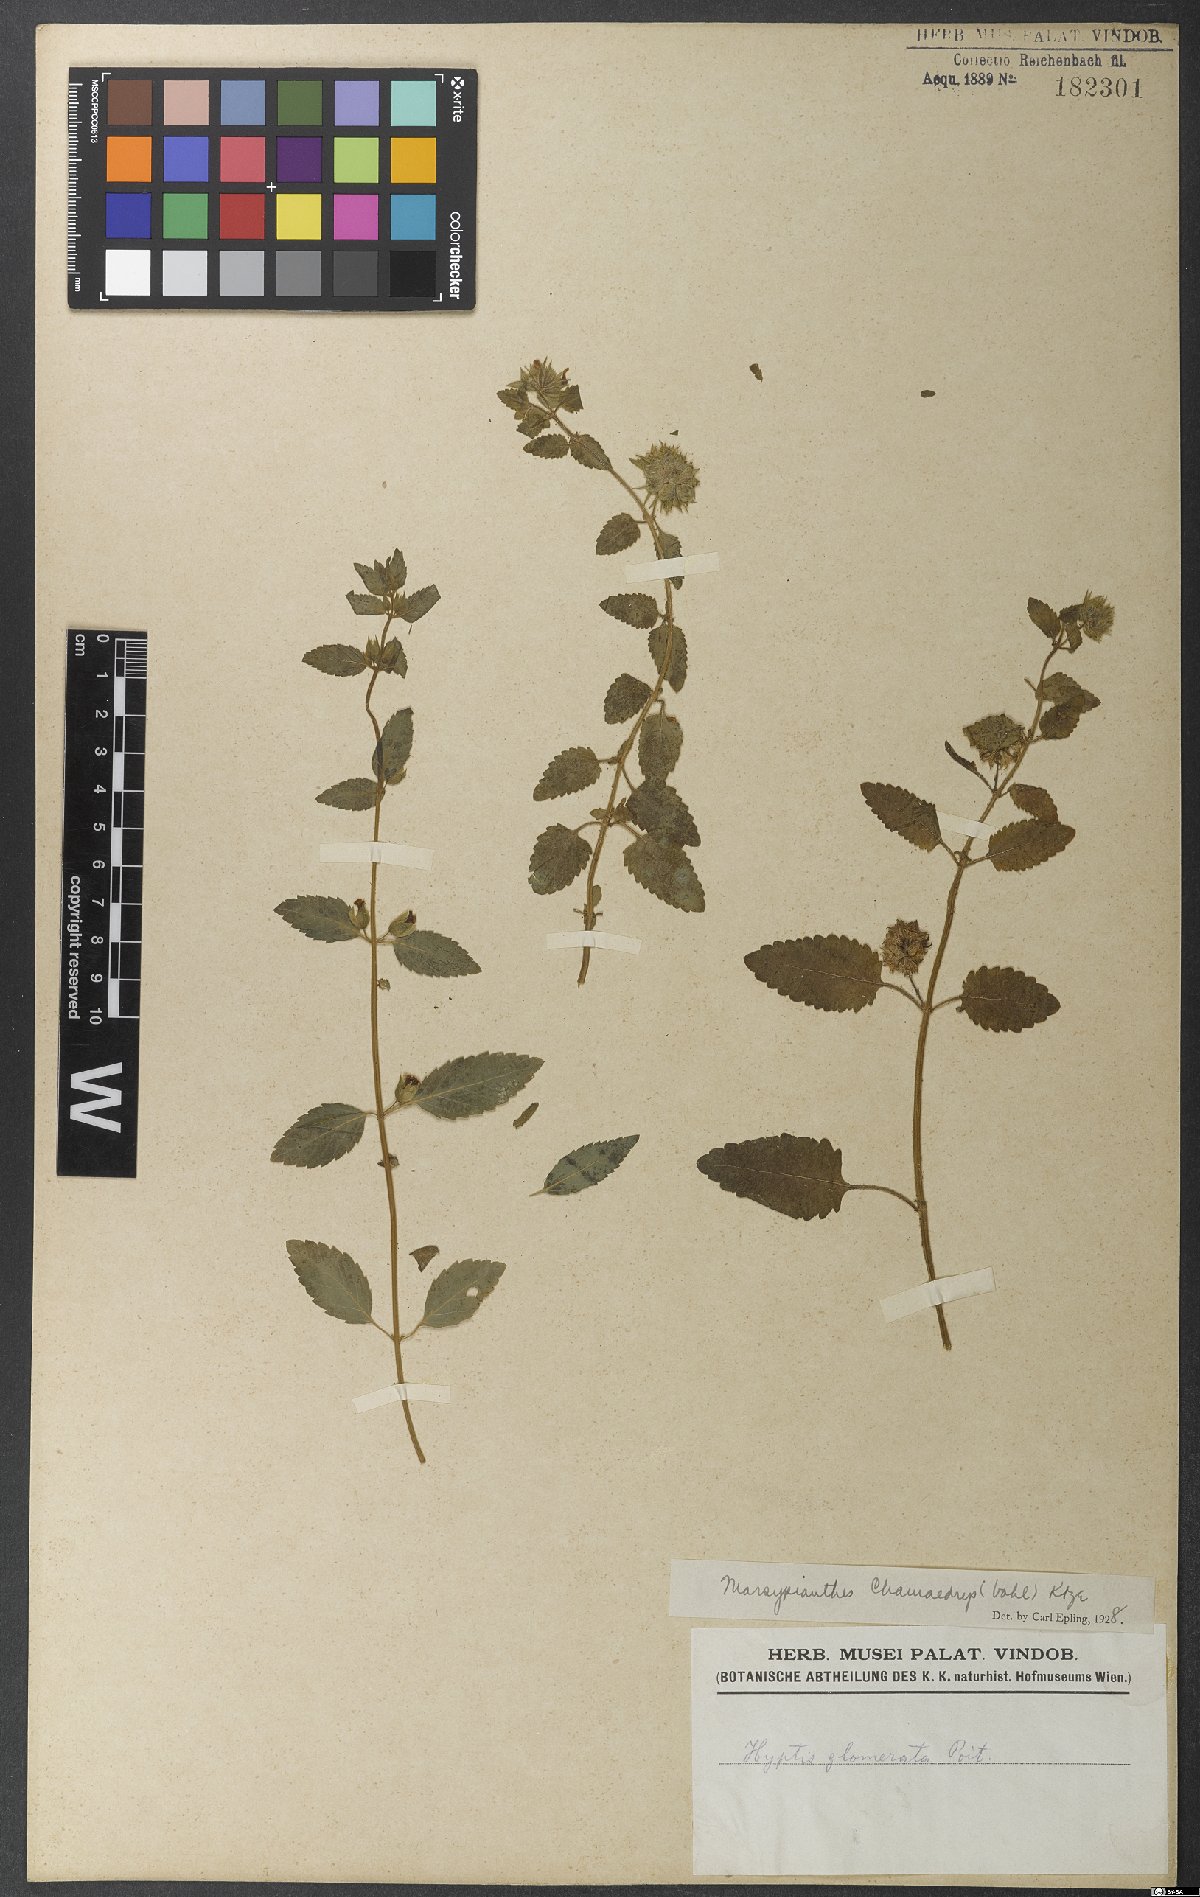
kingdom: Plantae
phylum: Tracheophyta
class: Magnoliopsida
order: Lamiales
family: Lamiaceae
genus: Marsypianthes
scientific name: Marsypianthes chamaedrys
